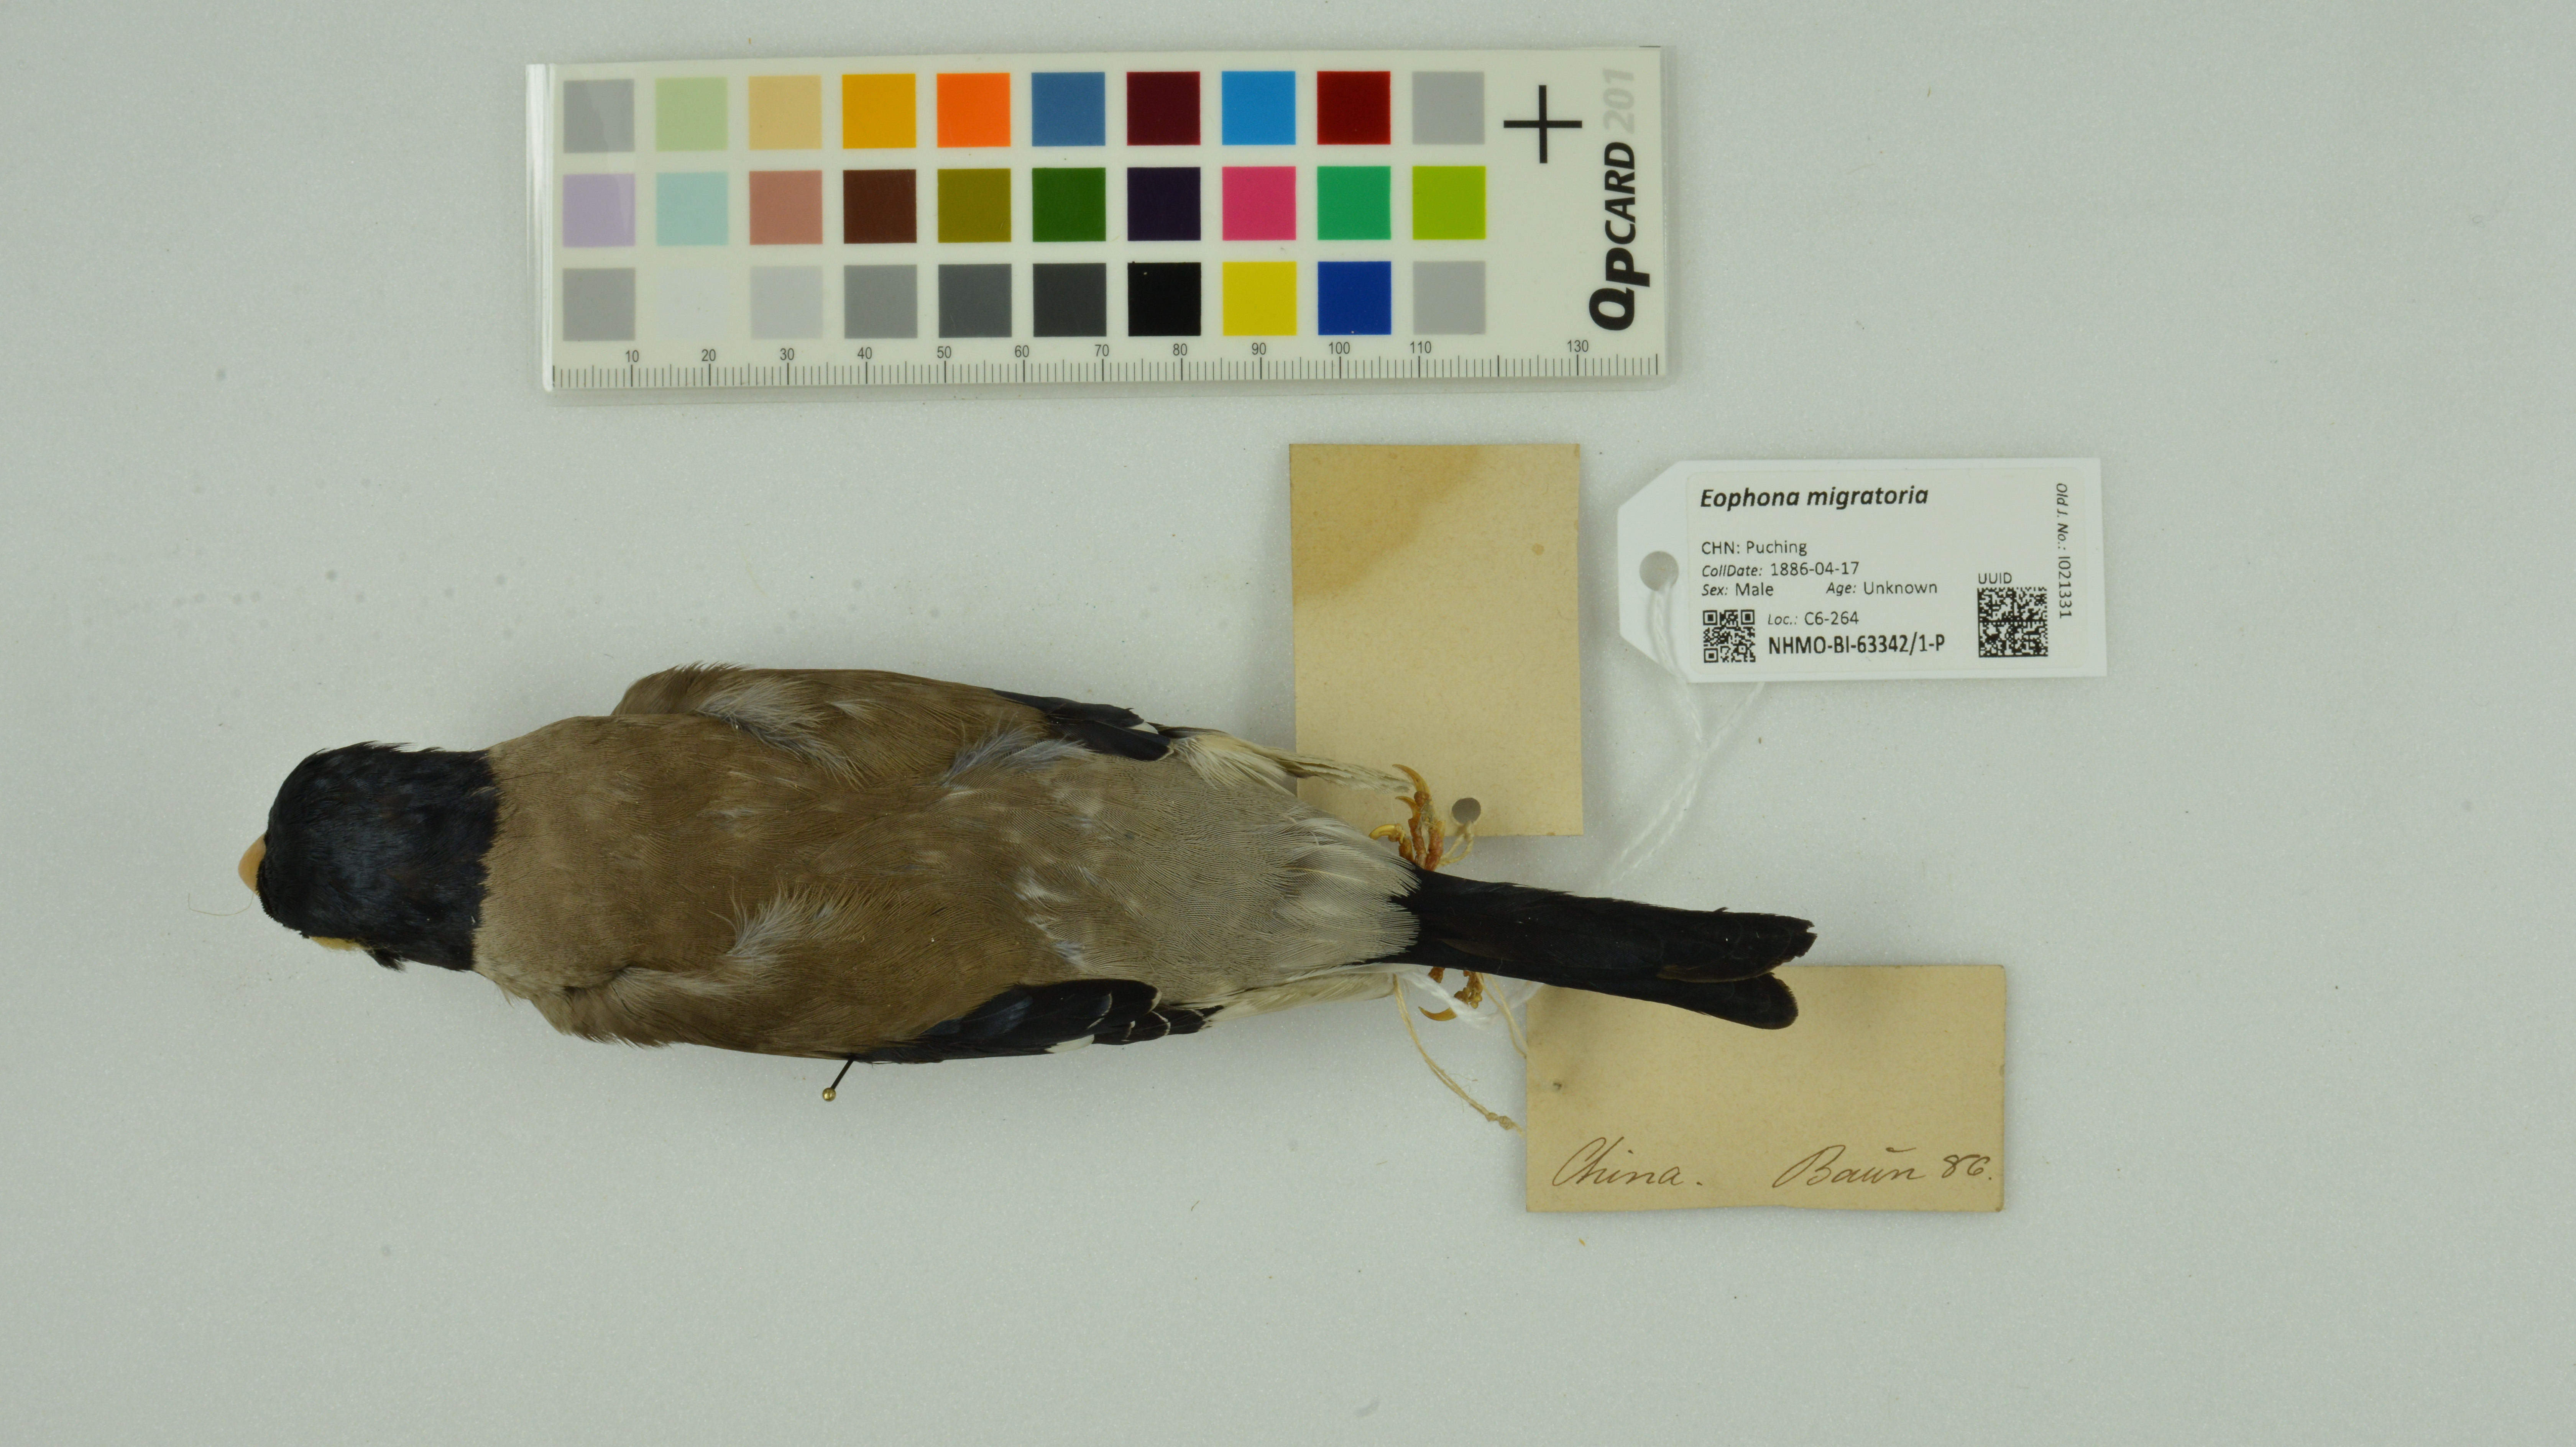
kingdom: Animalia
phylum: Chordata
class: Aves
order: Passeriformes
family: Fringillidae
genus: Eophona
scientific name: Eophona migratoria
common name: Yellow-billed grosbeak
